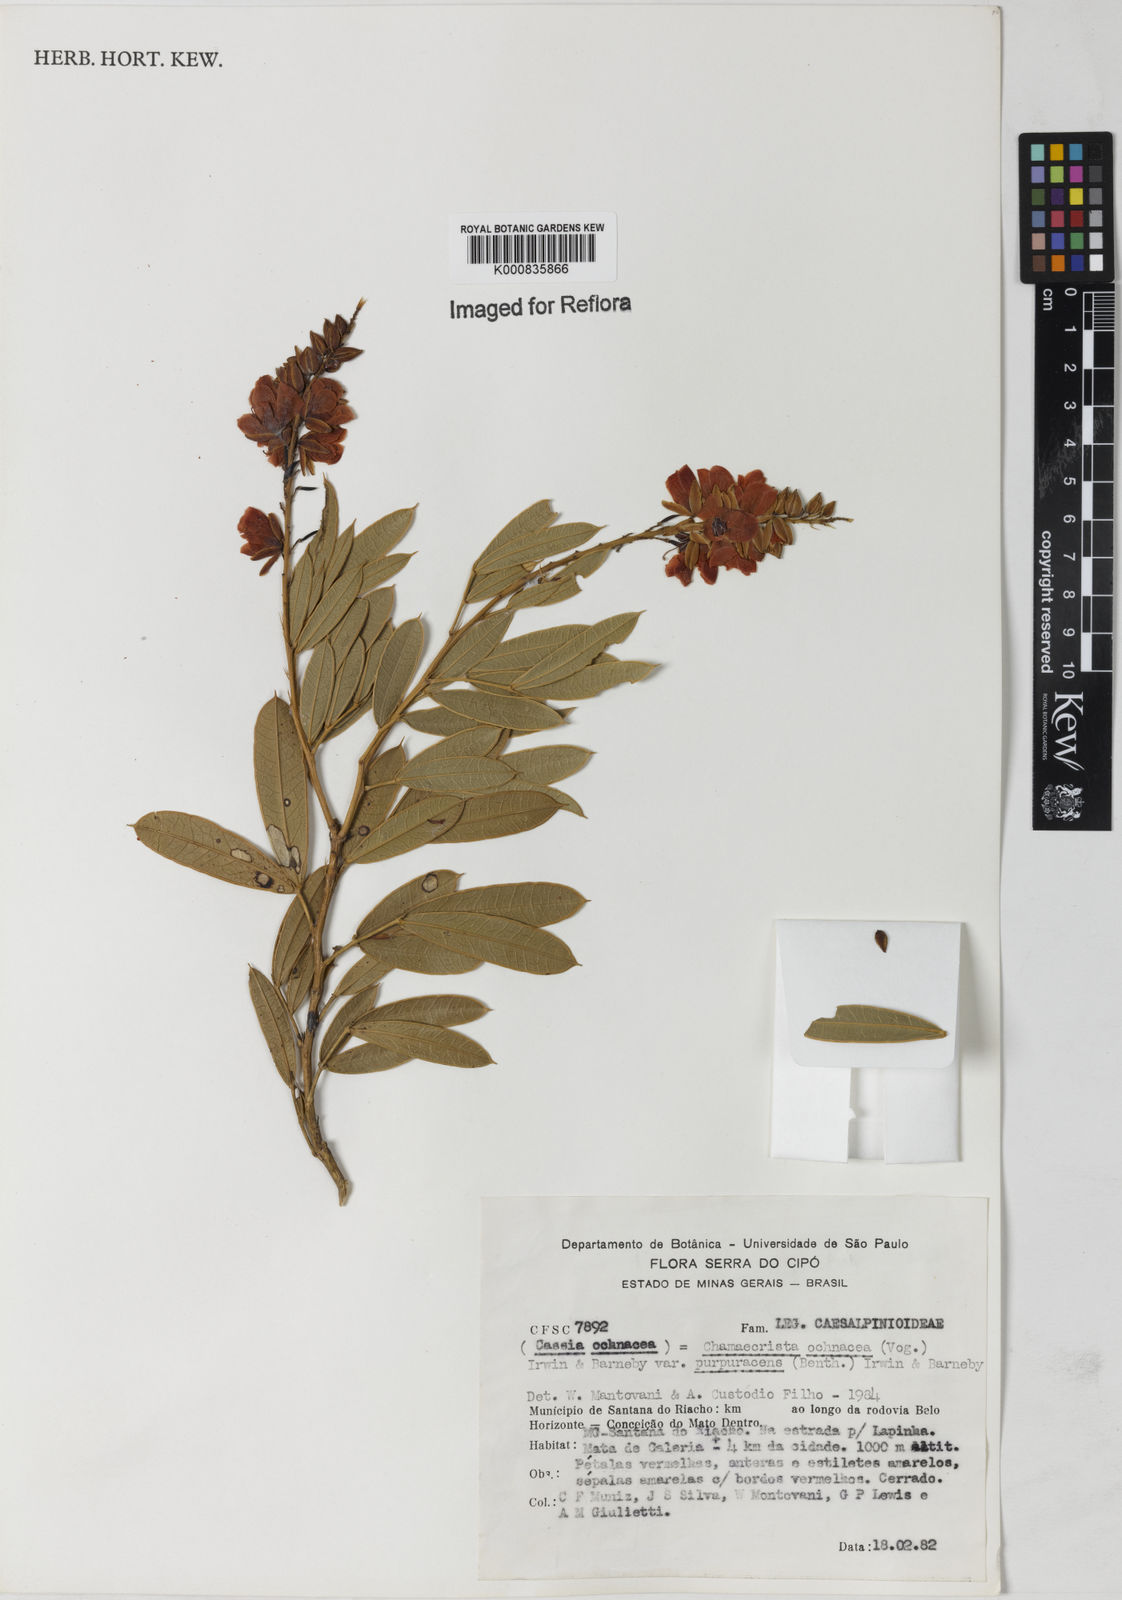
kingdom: Plantae
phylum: Tracheophyta
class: Magnoliopsida
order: Fabales
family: Fabaceae
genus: Chamaecrista
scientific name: Chamaecrista ochnacea
